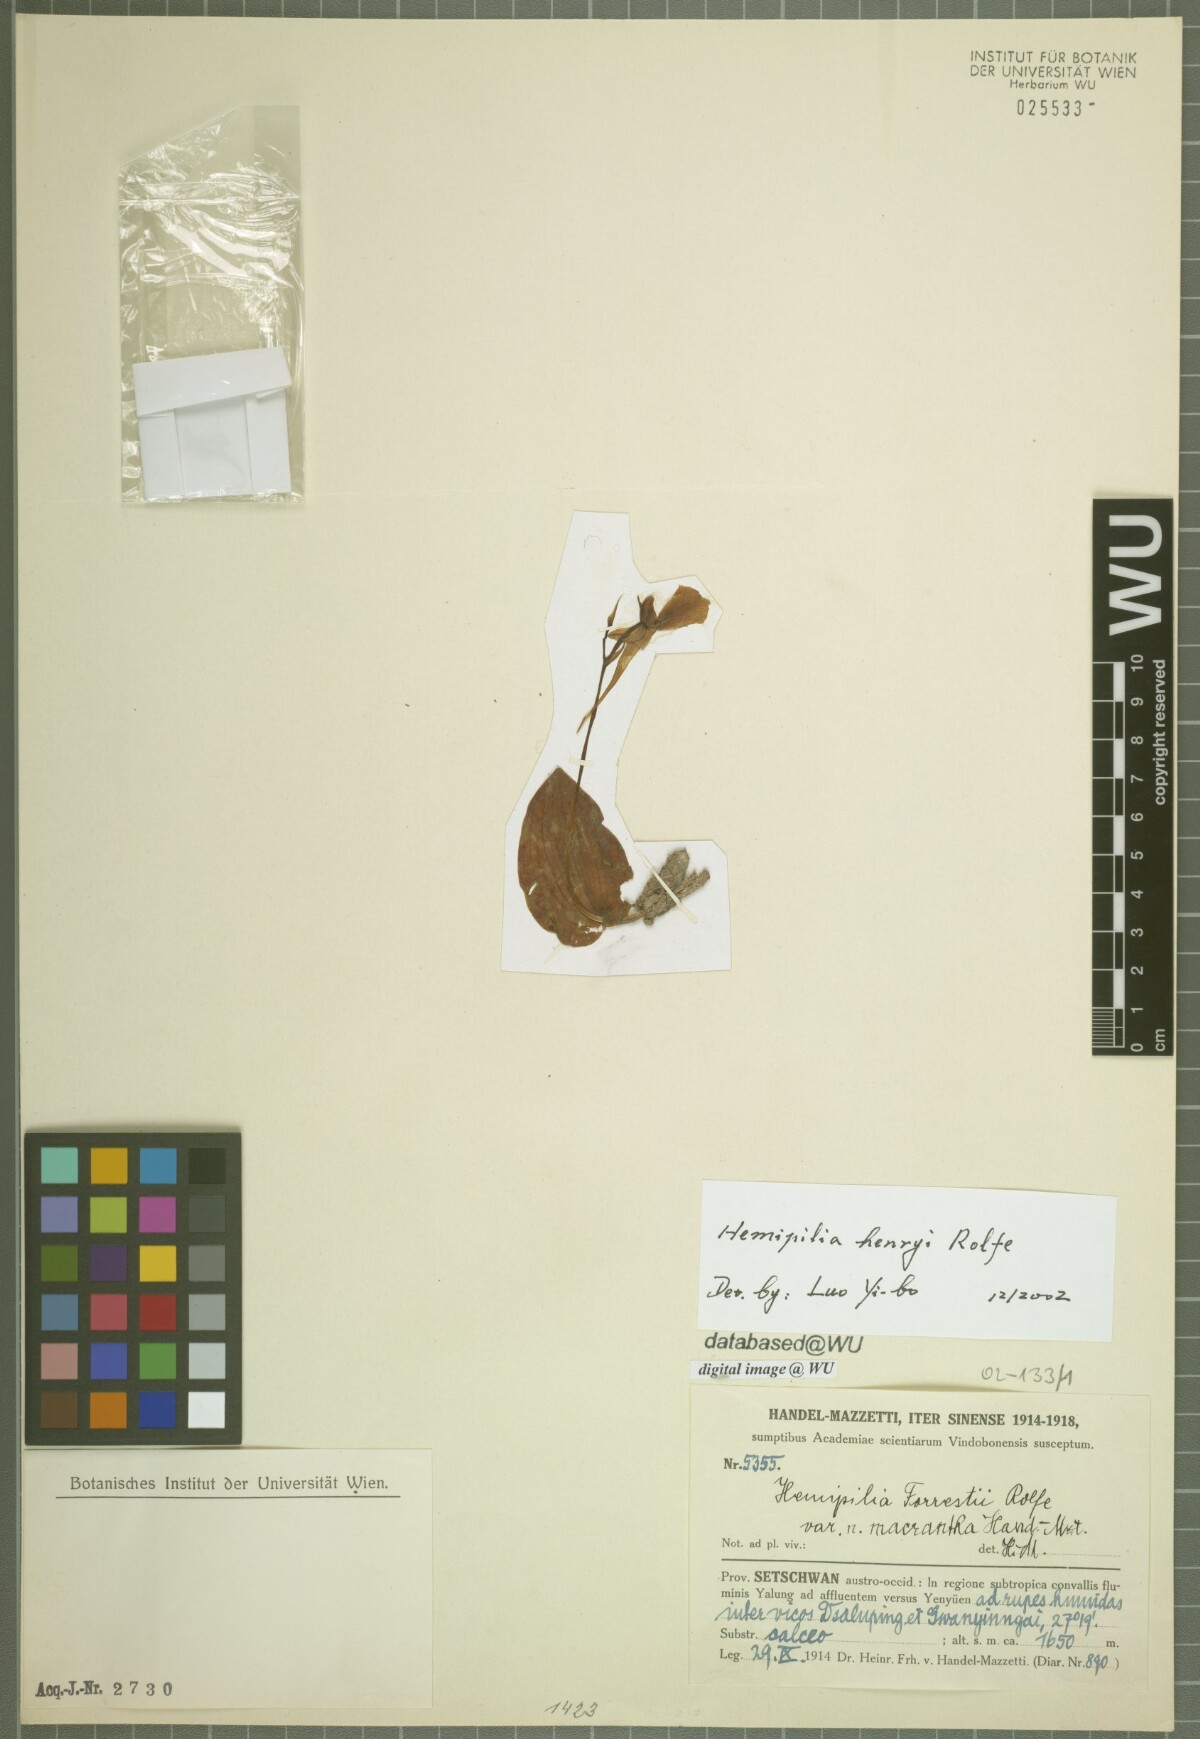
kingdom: Plantae
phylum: Tracheophyta
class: Liliopsida
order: Asparagales
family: Orchidaceae
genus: Hemipilia
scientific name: Hemipilia flabellata
